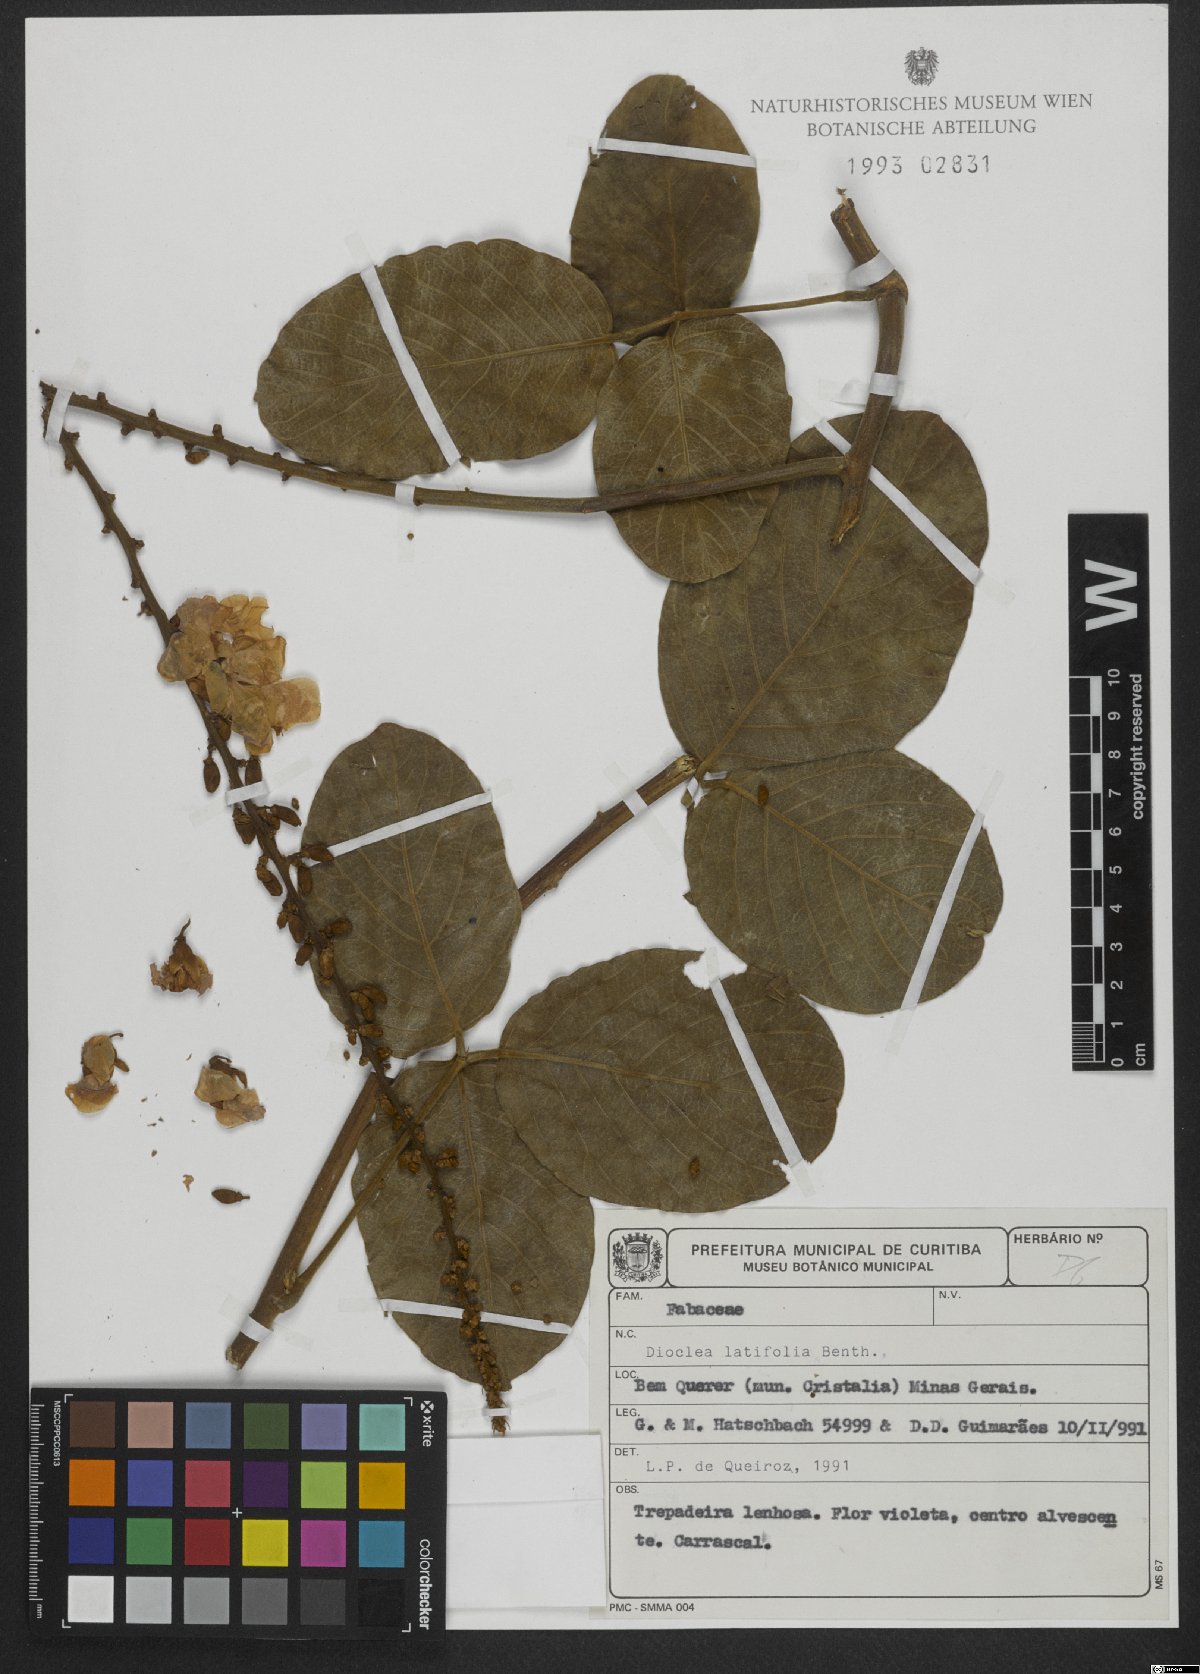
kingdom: Plantae
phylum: Tracheophyta
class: Magnoliopsida
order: Fabales
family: Fabaceae
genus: Macropsychanthus
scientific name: Macropsychanthus latifolius
